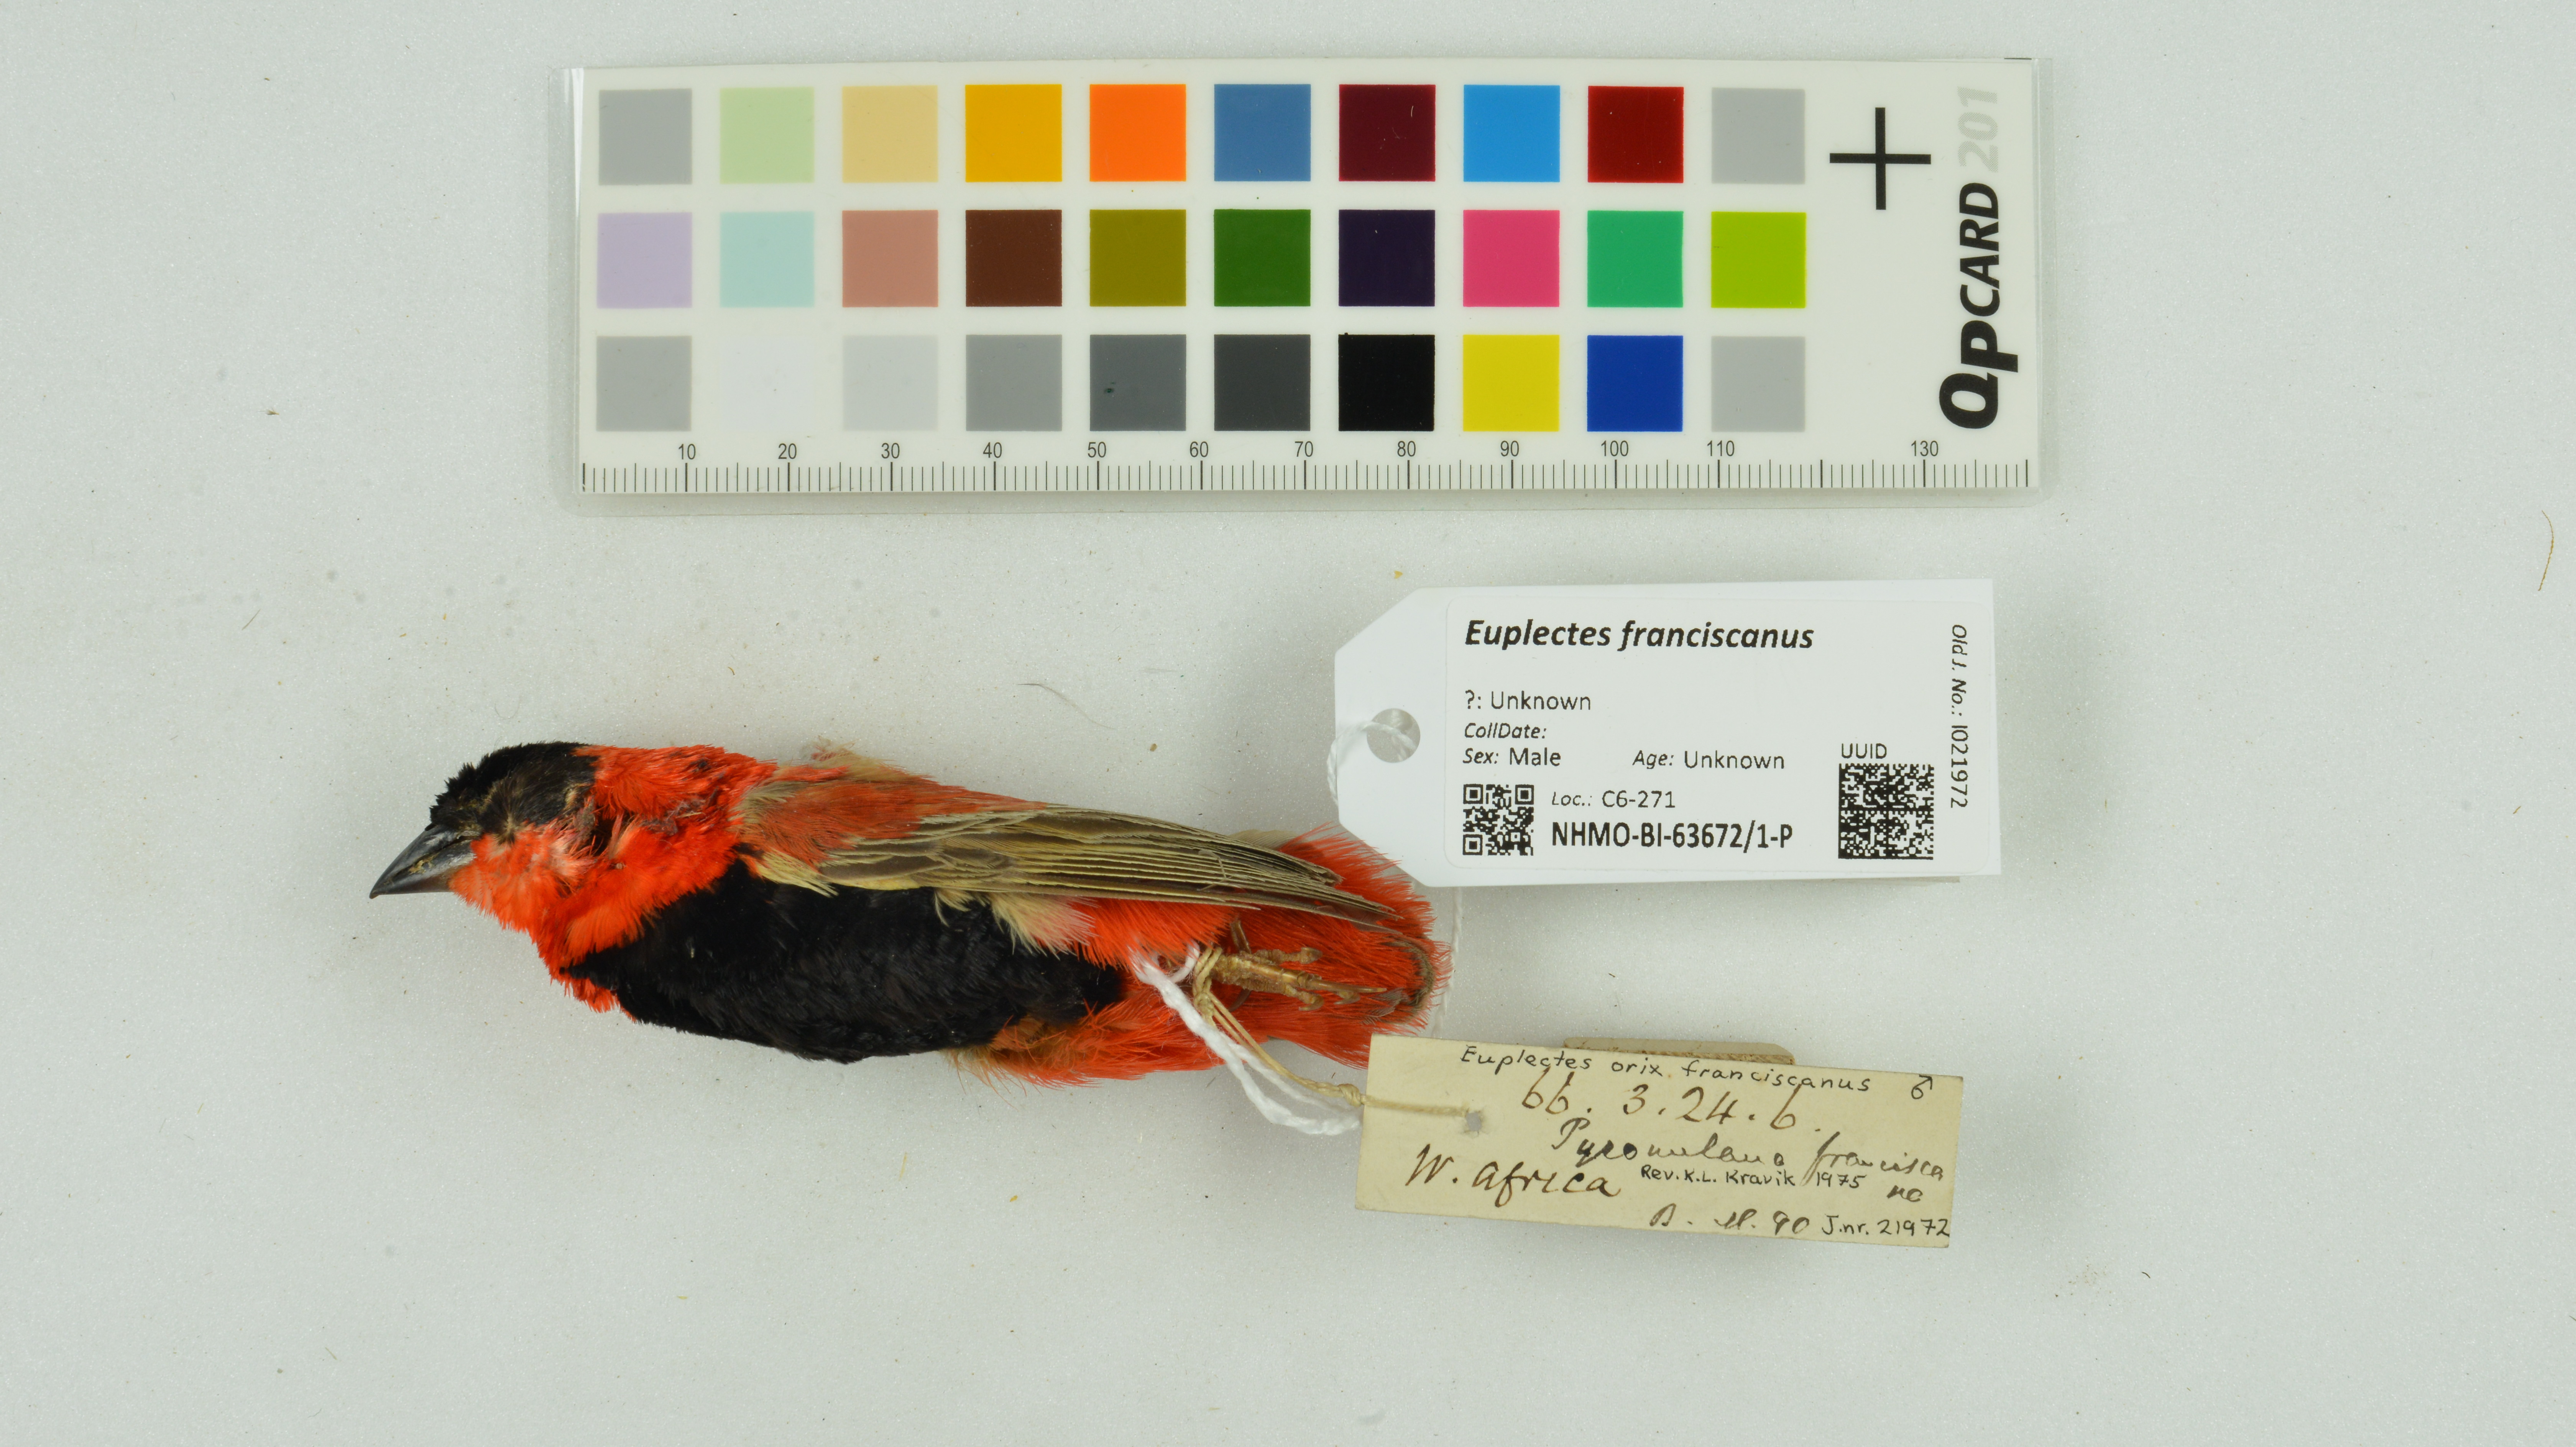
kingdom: Animalia
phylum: Chordata
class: Aves
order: Passeriformes
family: Ploceidae
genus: Euplectes
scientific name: Euplectes franciscanus
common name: Northern red bishop
